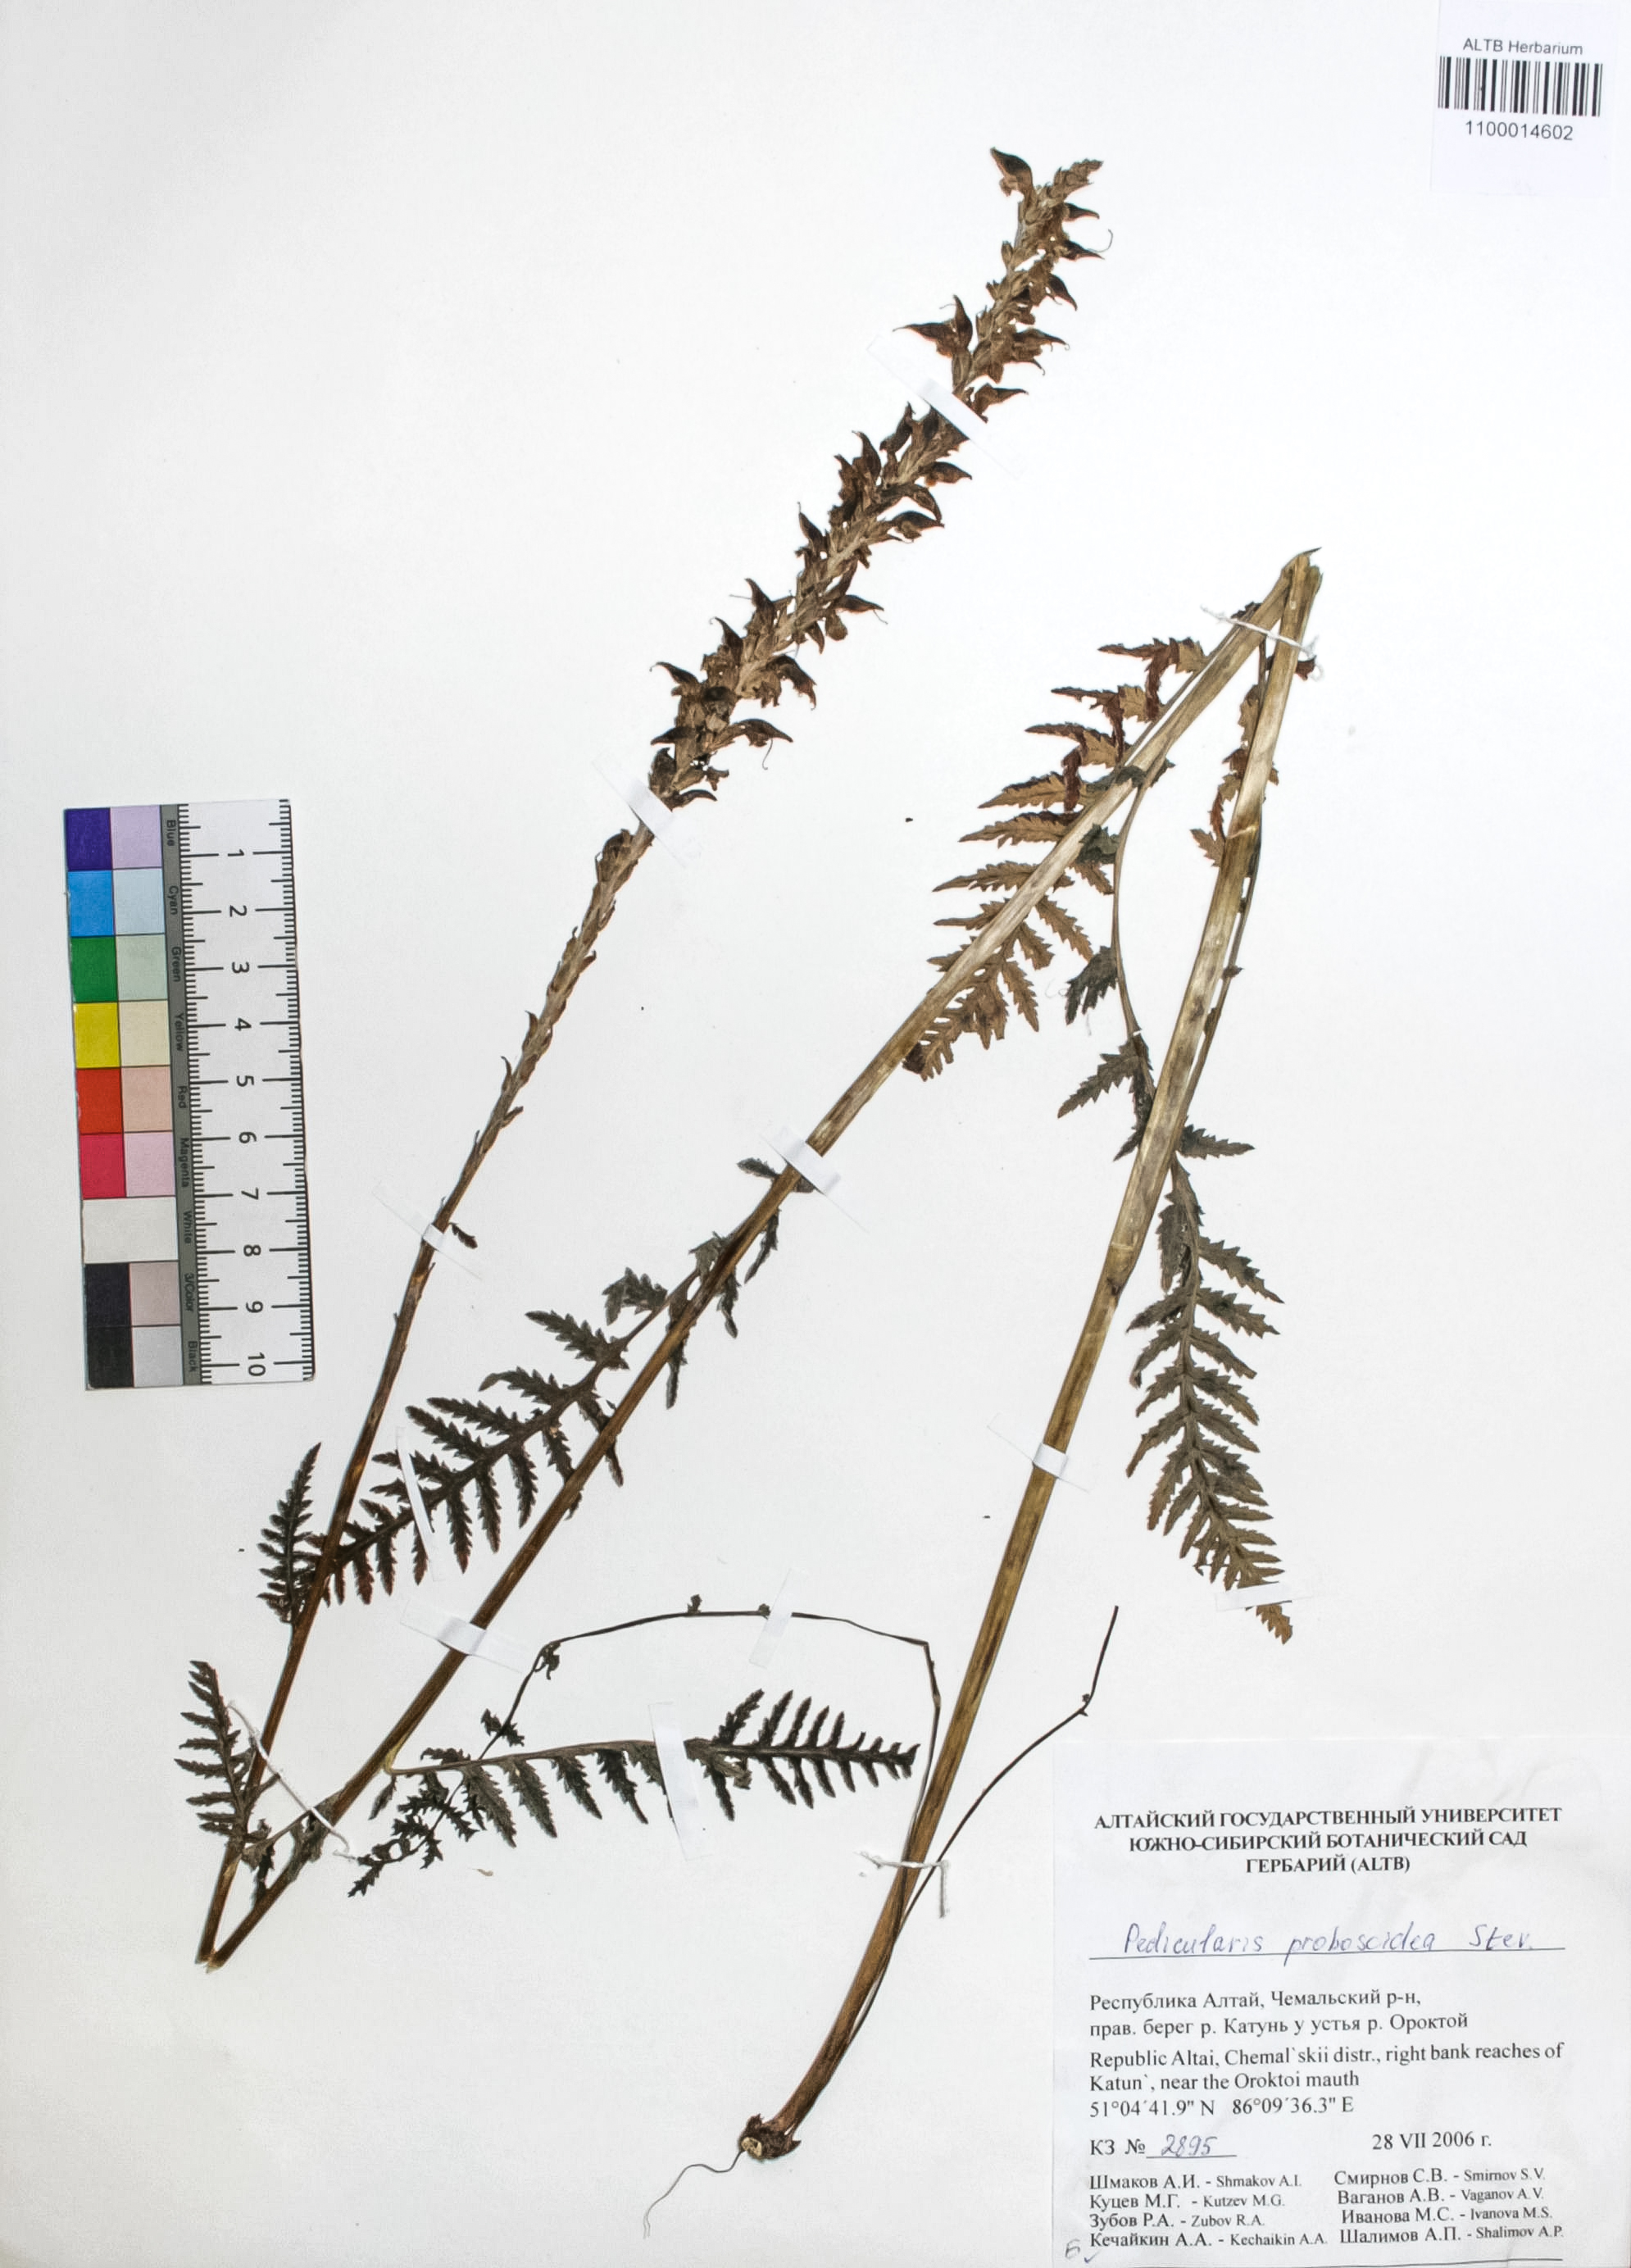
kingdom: Plantae
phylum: Tracheophyta
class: Magnoliopsida
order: Lamiales
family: Orobanchaceae
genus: Pedicularis
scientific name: Pedicularis proboscidea
